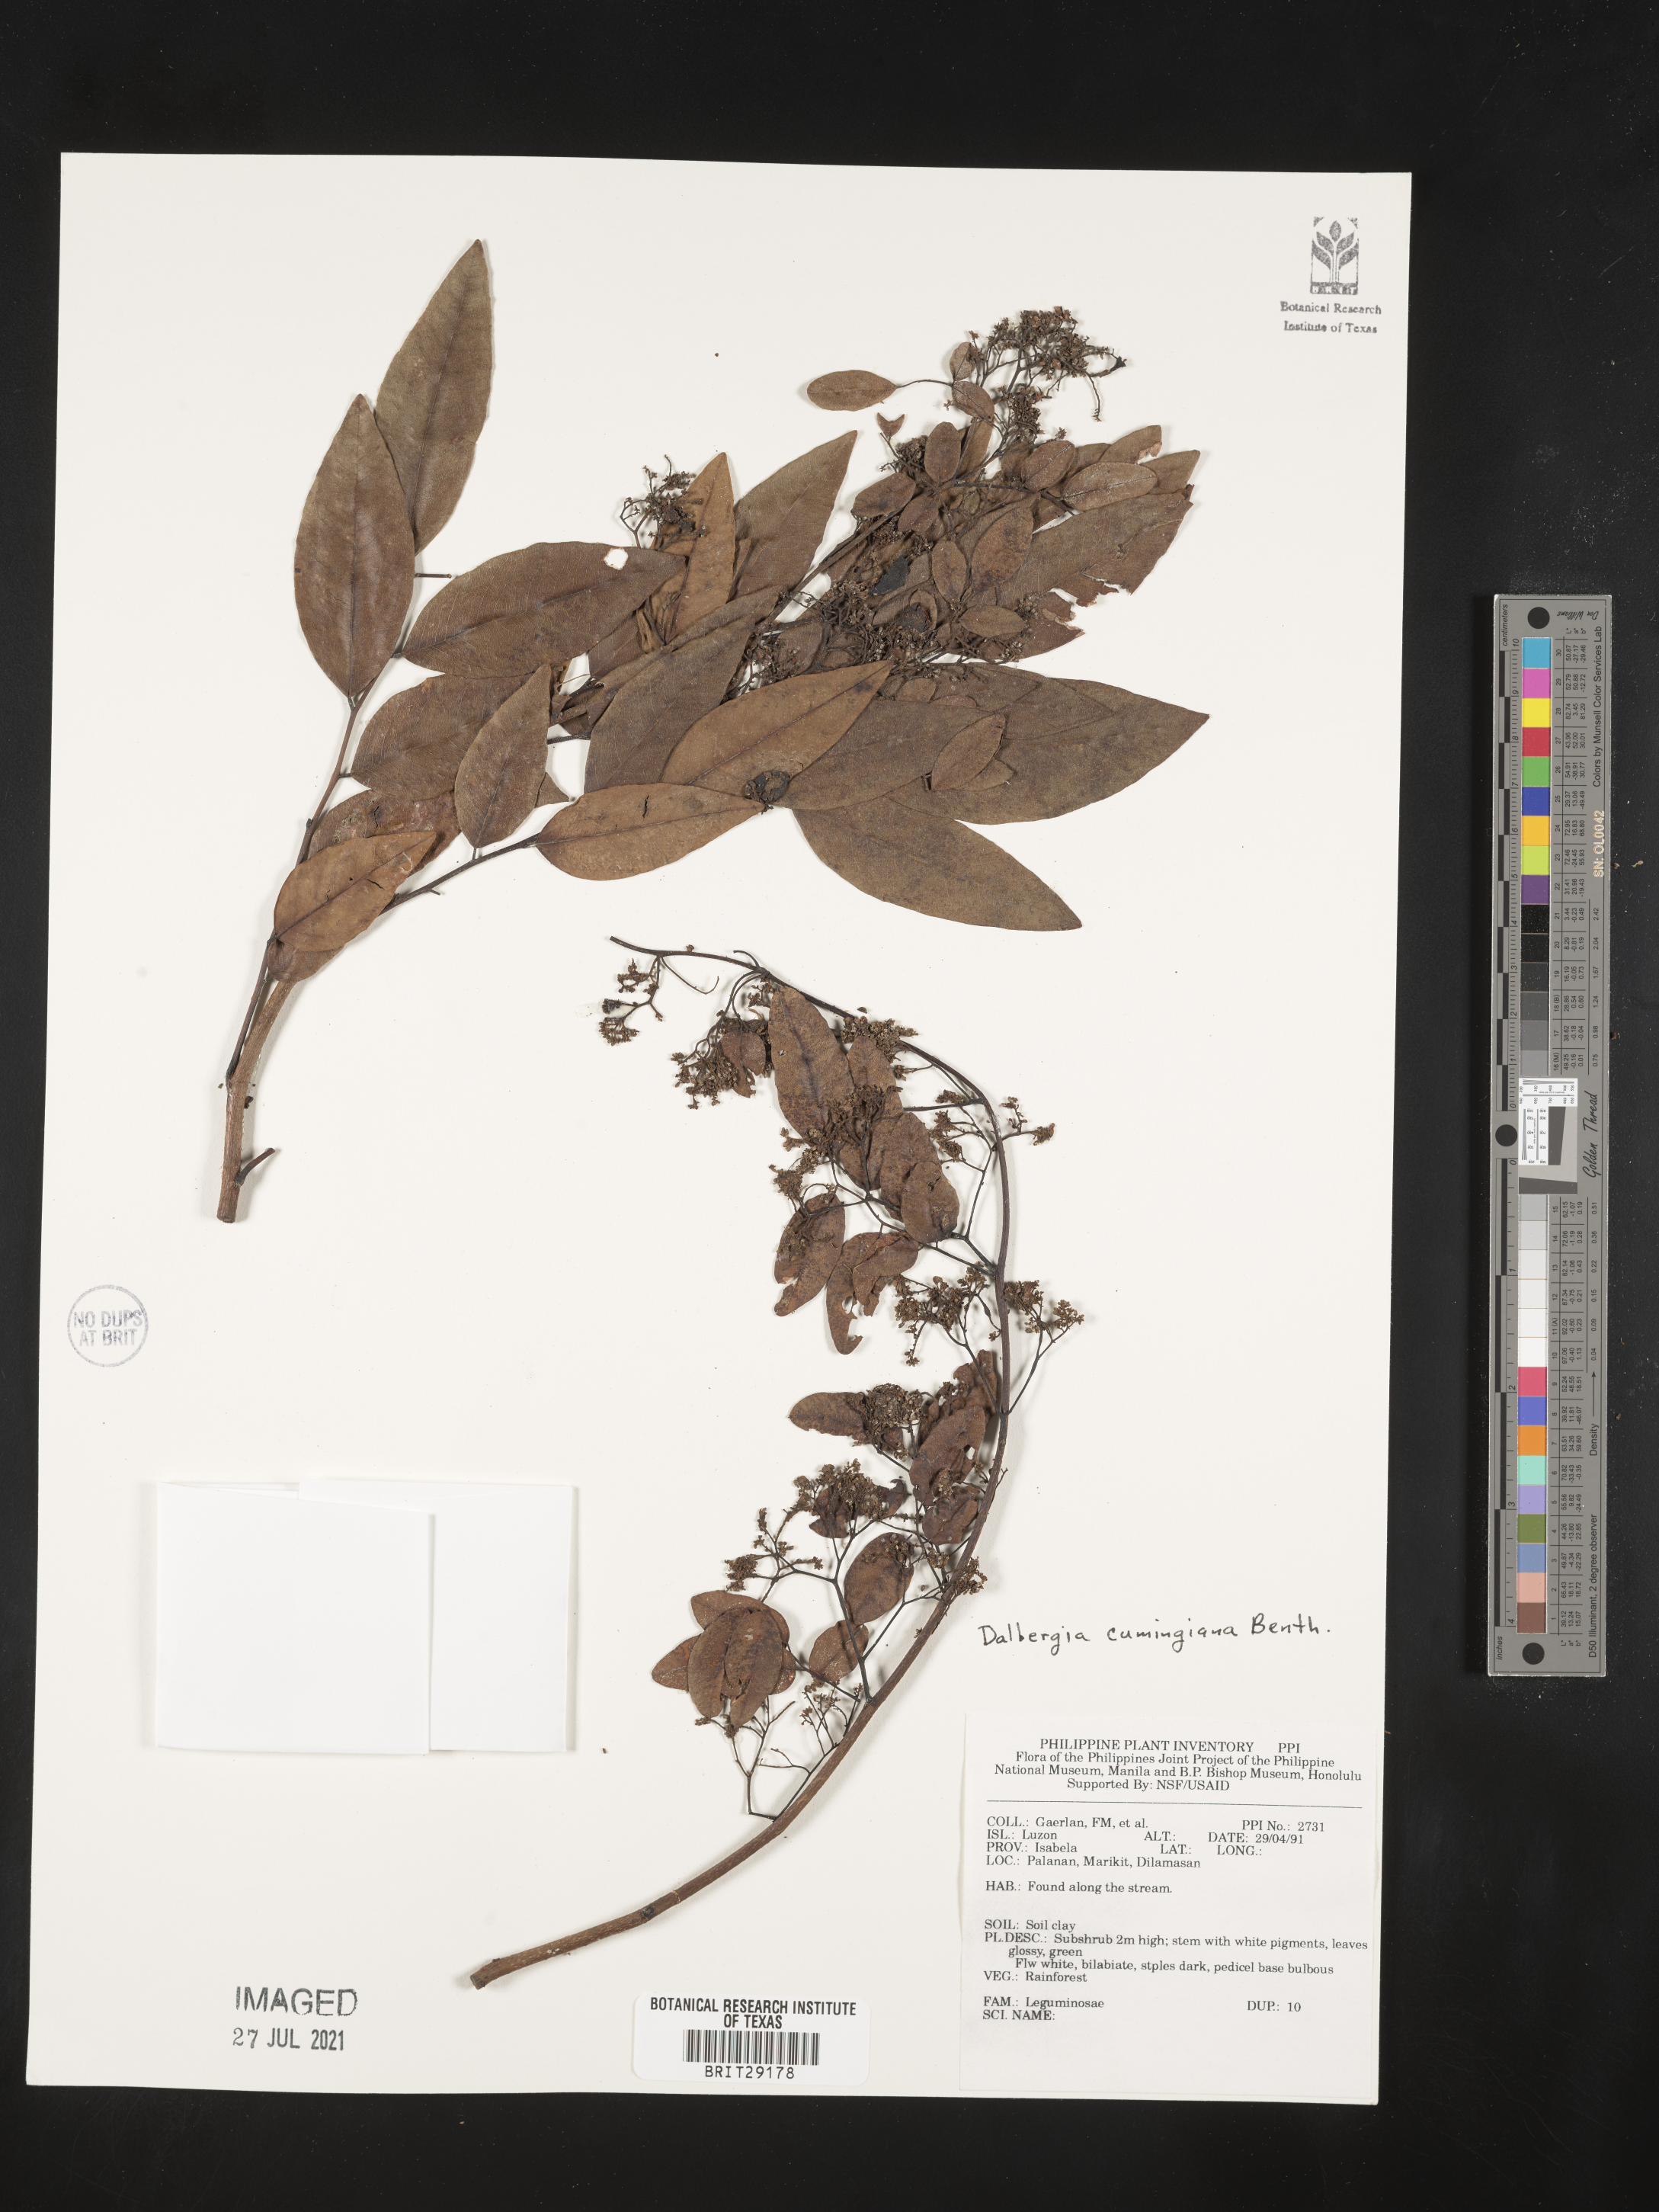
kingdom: Plantae
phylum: Tracheophyta
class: Magnoliopsida
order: Fabales
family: Fabaceae
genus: Dalbergia
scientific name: Dalbergia cumingiana
